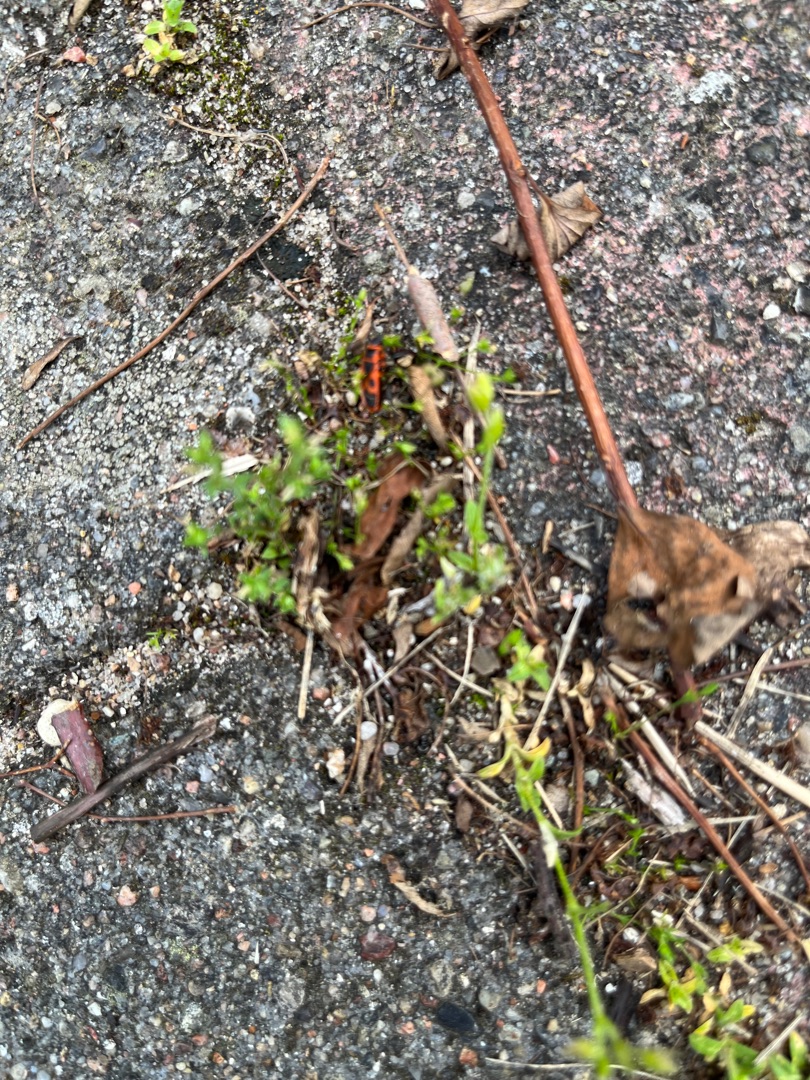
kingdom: Animalia
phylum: Arthropoda
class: Insecta
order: Hemiptera
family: Pyrrhocoridae
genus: Pyrrhocoris
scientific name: Pyrrhocoris apterus
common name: Ildtæge
